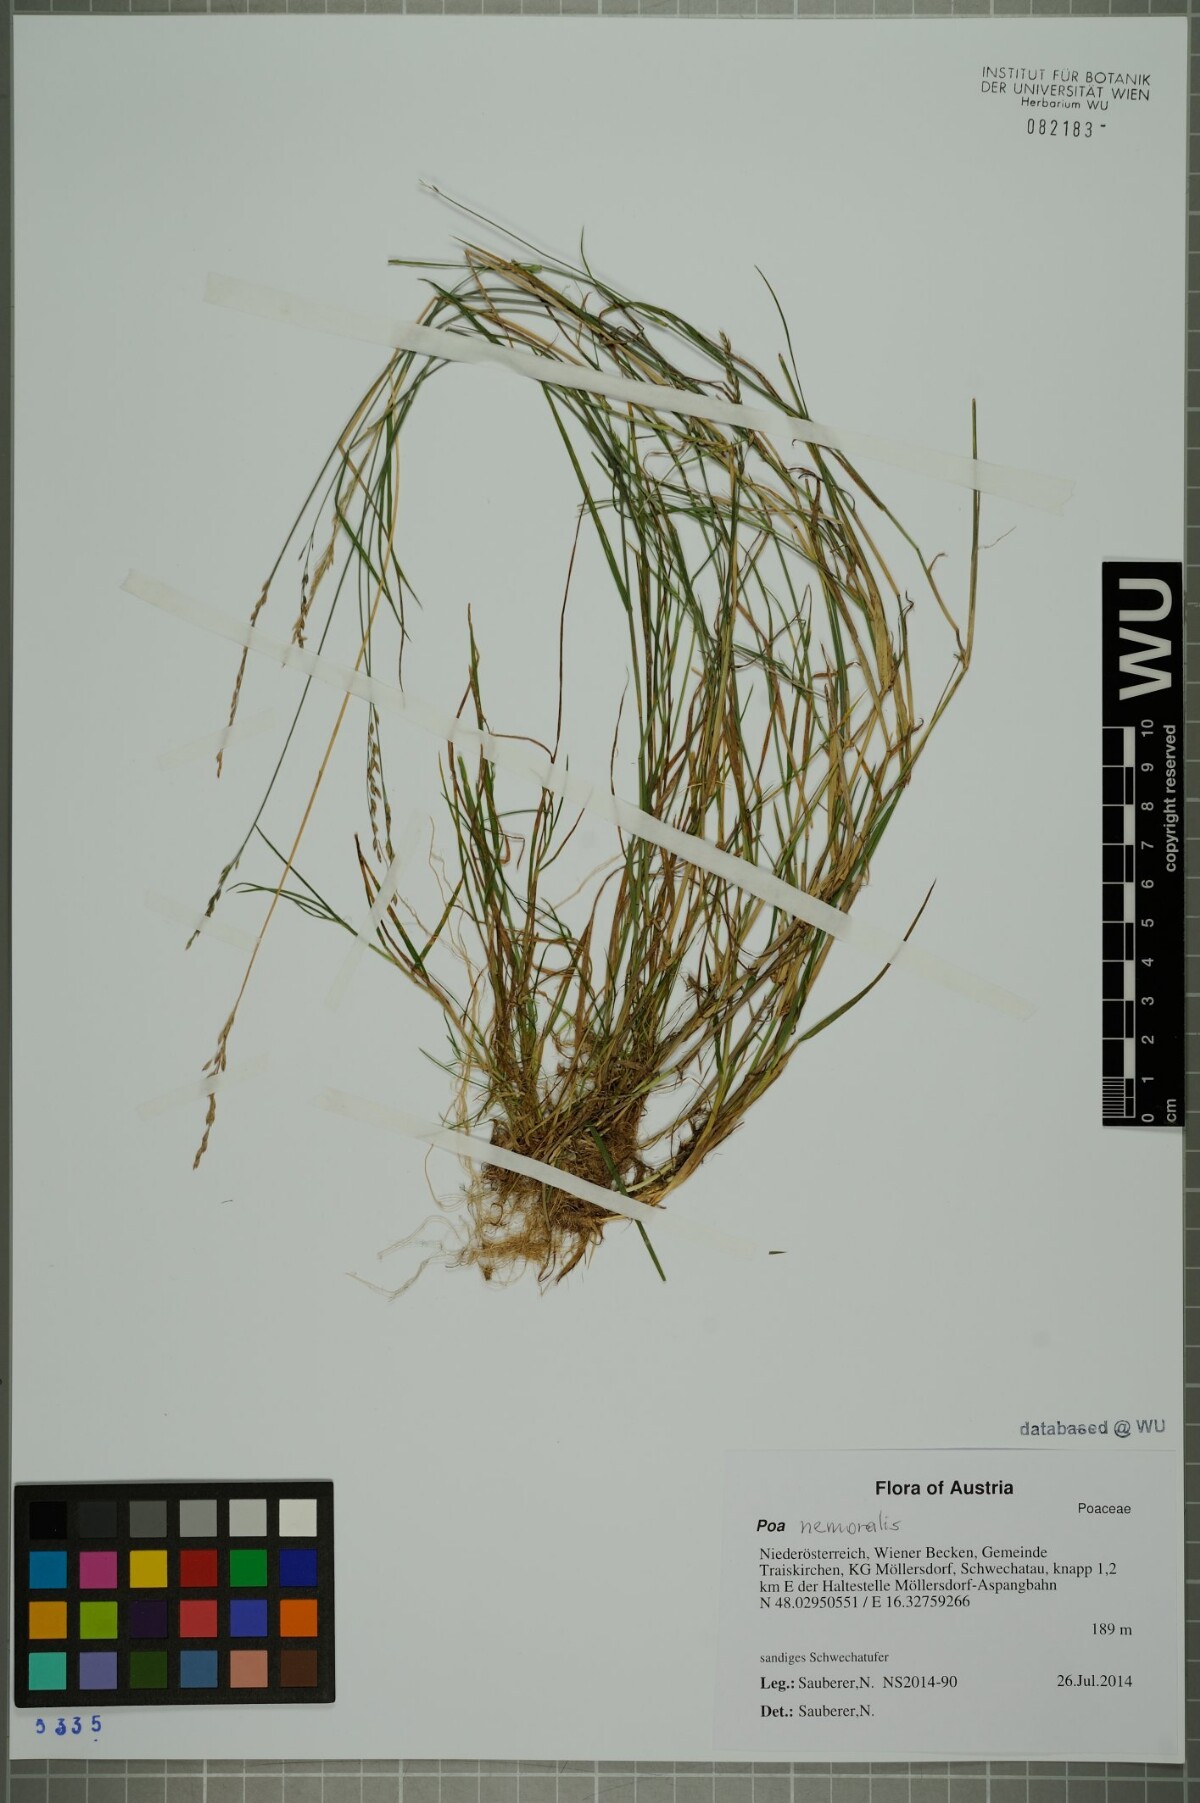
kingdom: Plantae
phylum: Tracheophyta
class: Liliopsida
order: Poales
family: Poaceae
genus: Poa
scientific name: Poa nemoralis
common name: Wood bluegrass
